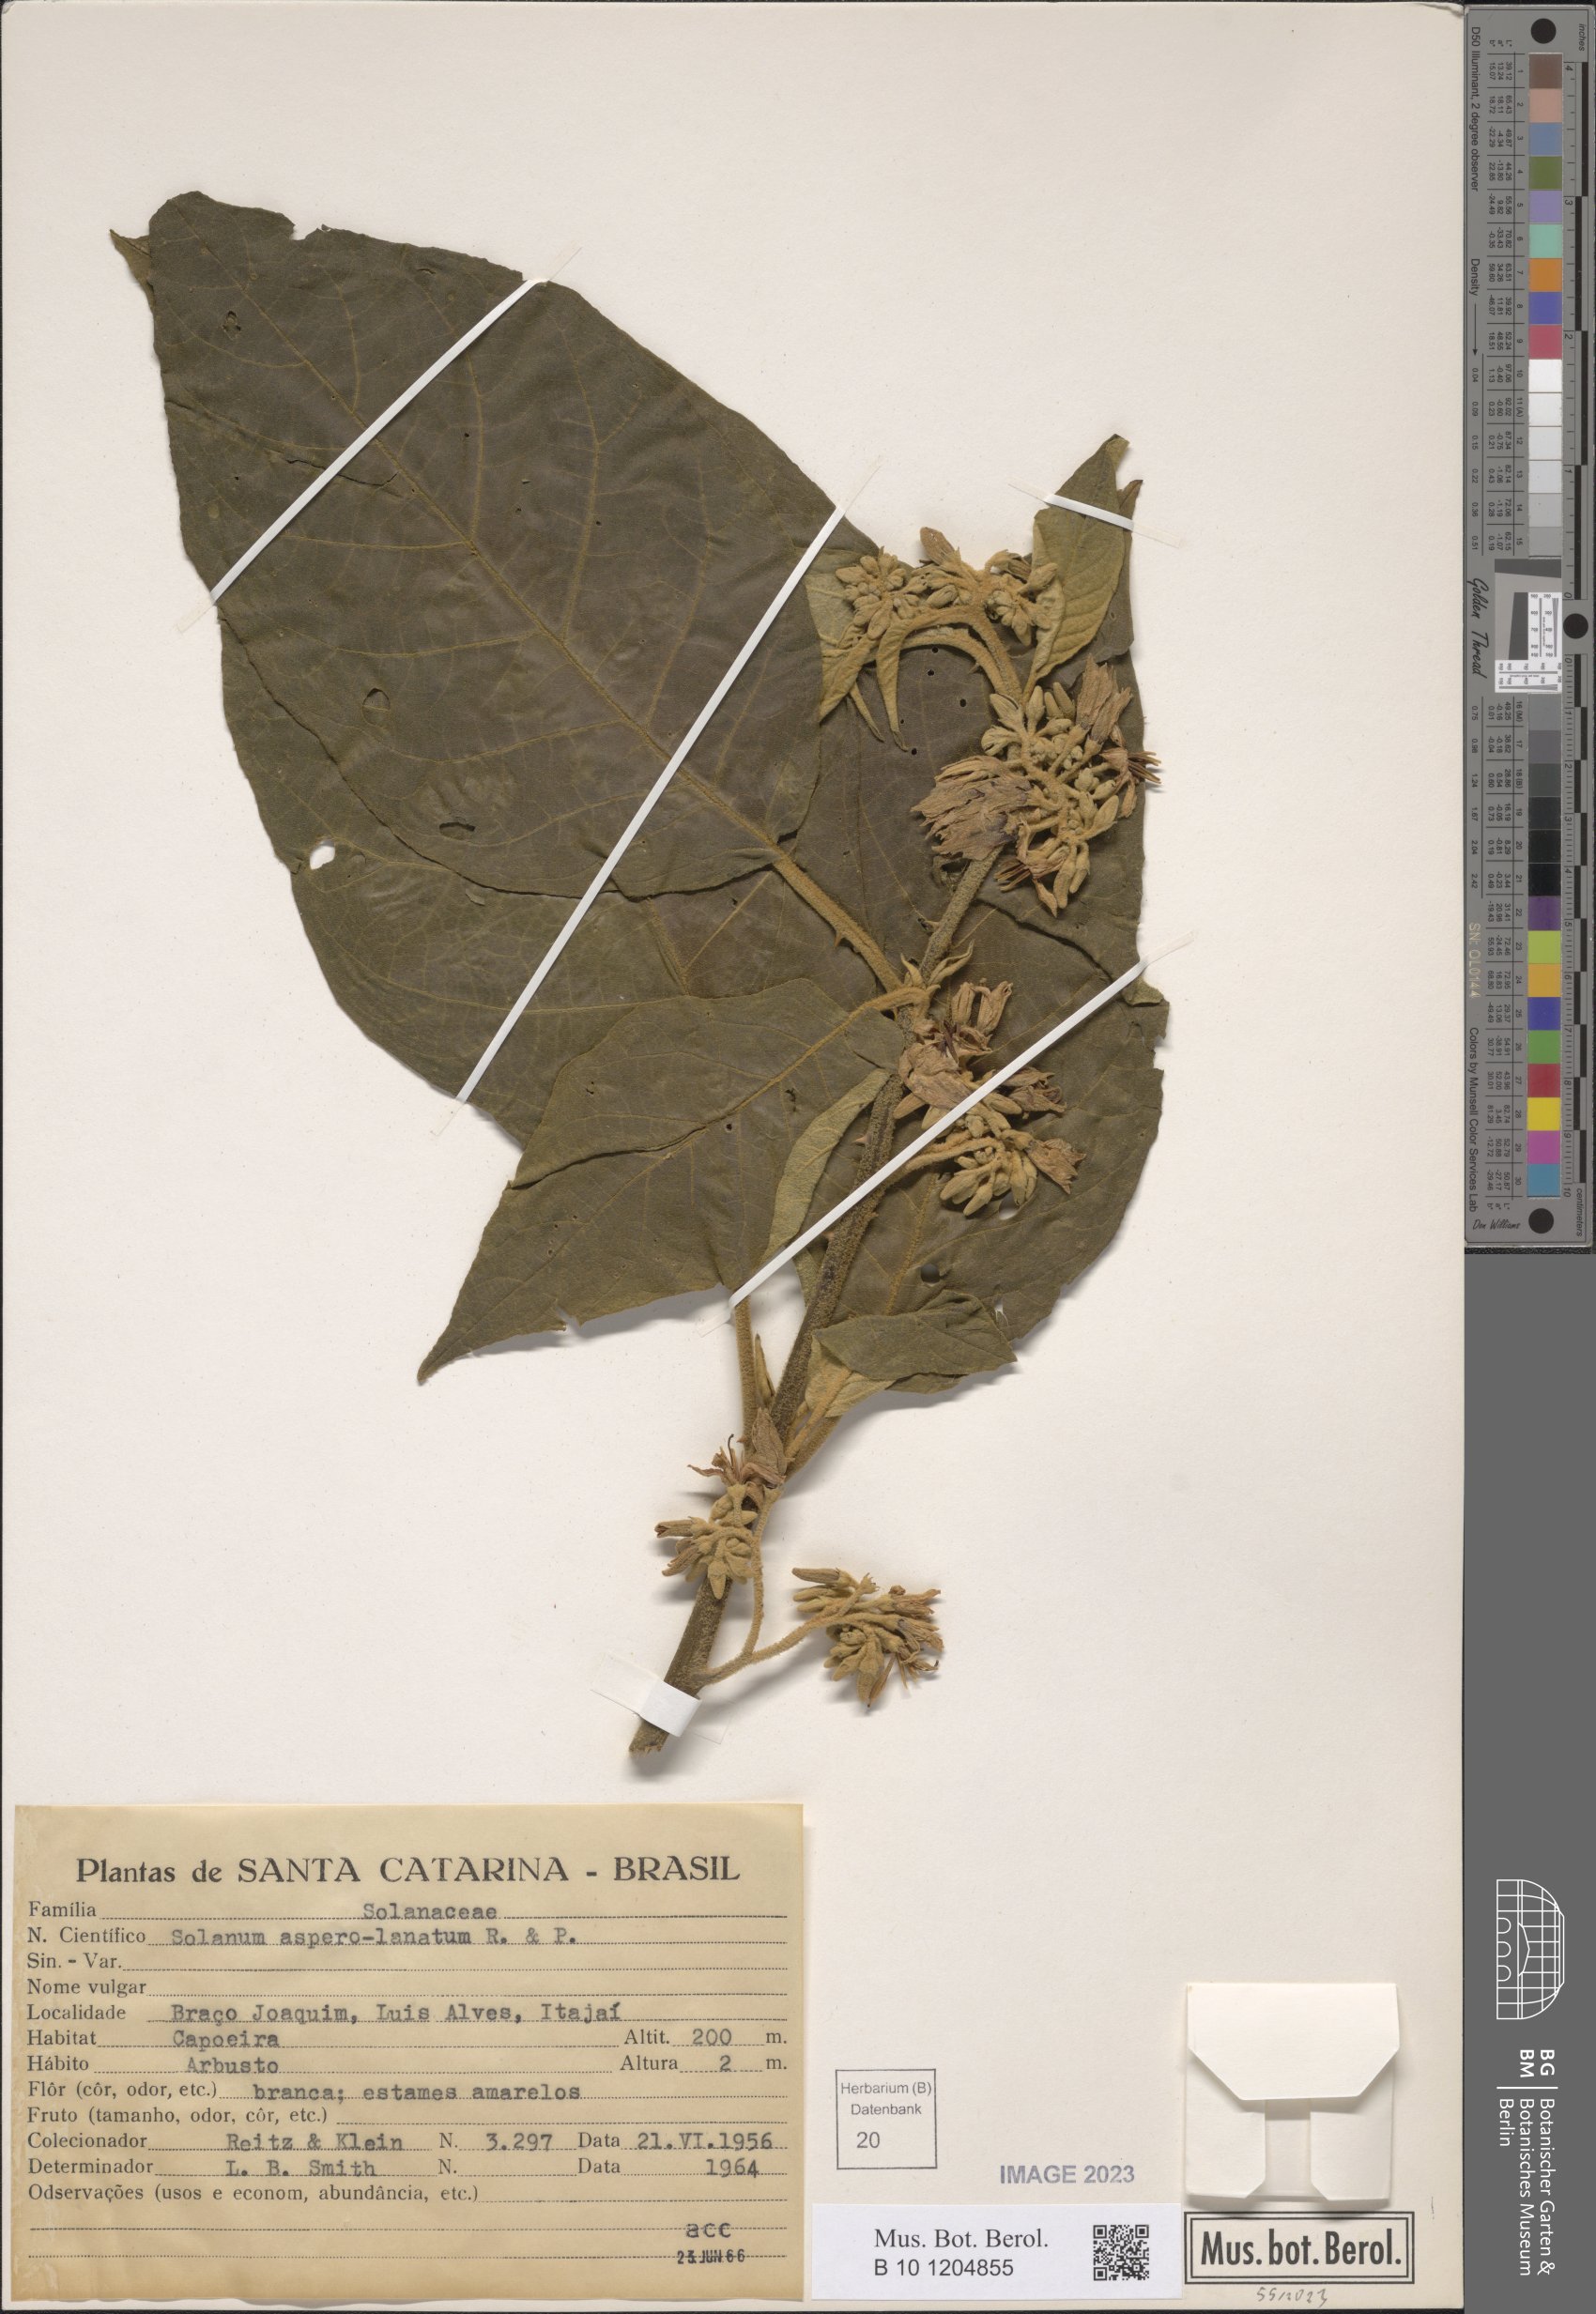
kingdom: Plantae
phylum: Tracheophyta
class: Magnoliopsida
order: Solanales
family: Solanaceae
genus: Solanum
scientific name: Solanum asperolanatum
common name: Devil's-fig
